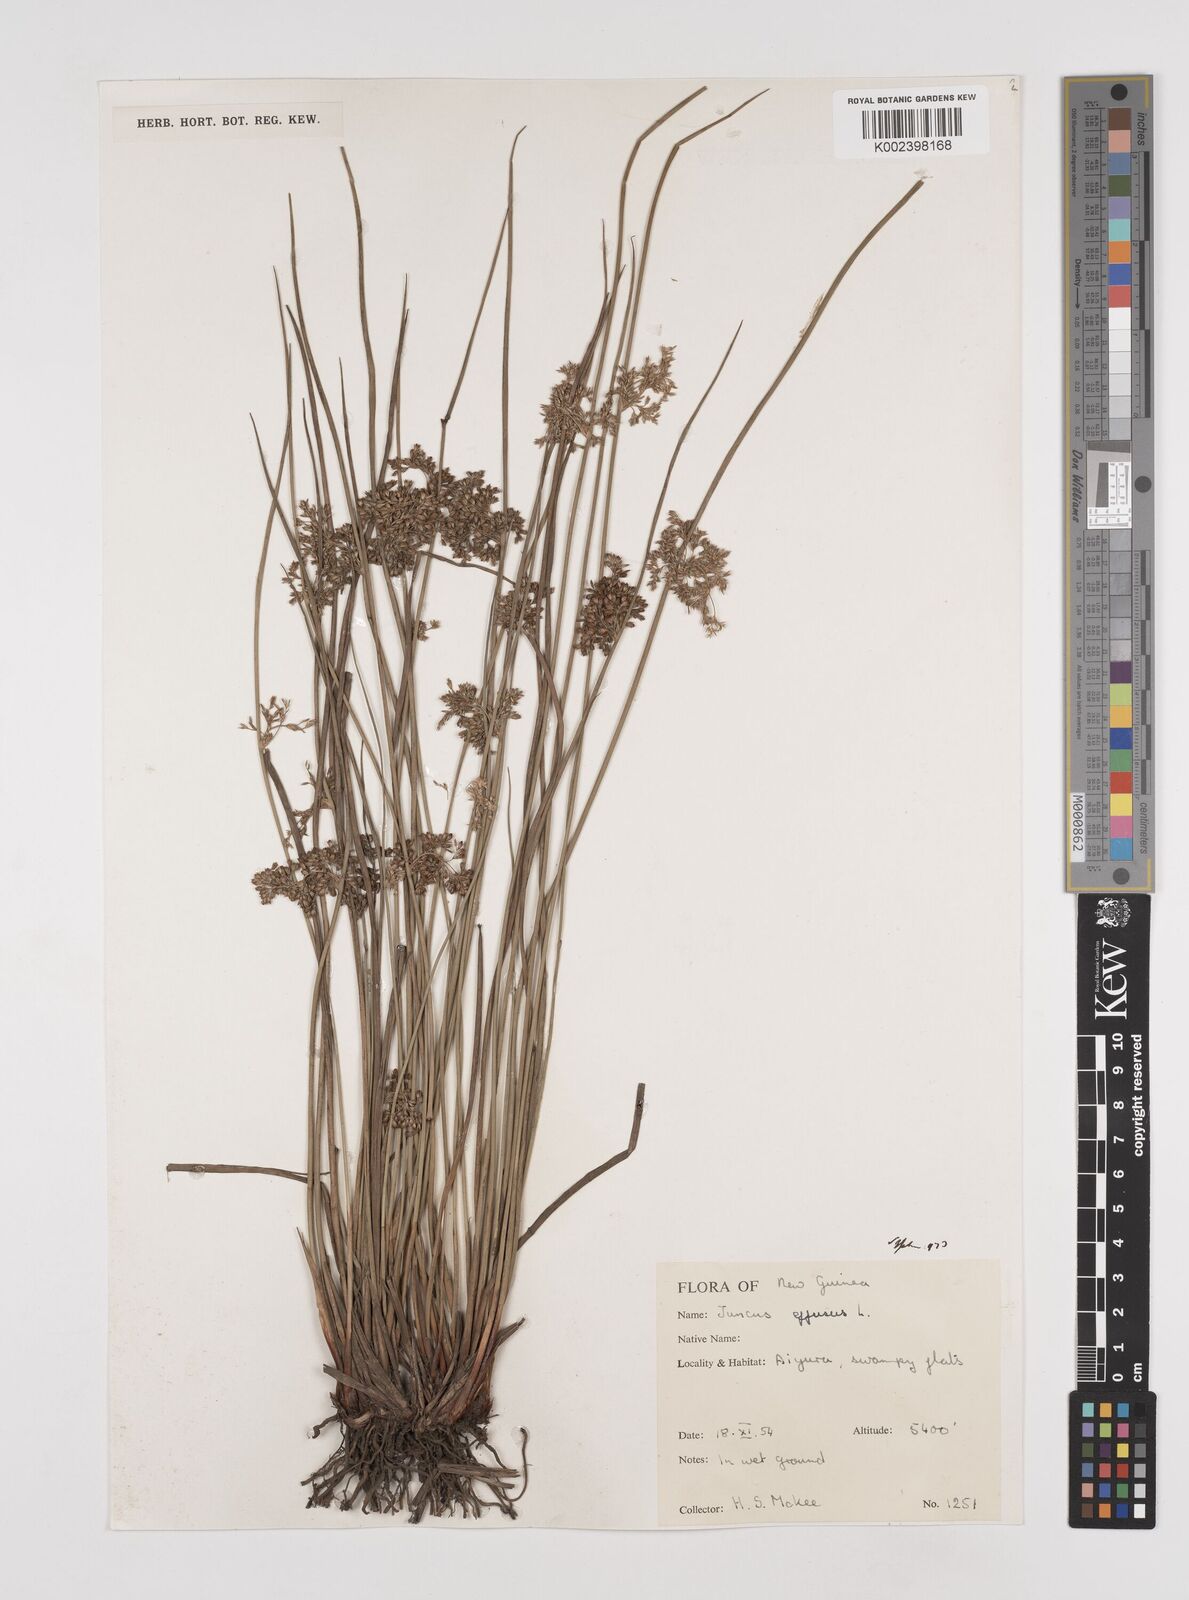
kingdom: Plantae
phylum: Tracheophyta
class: Liliopsida
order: Poales
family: Juncaceae
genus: Juncus
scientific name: Juncus effusus
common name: Soft rush
